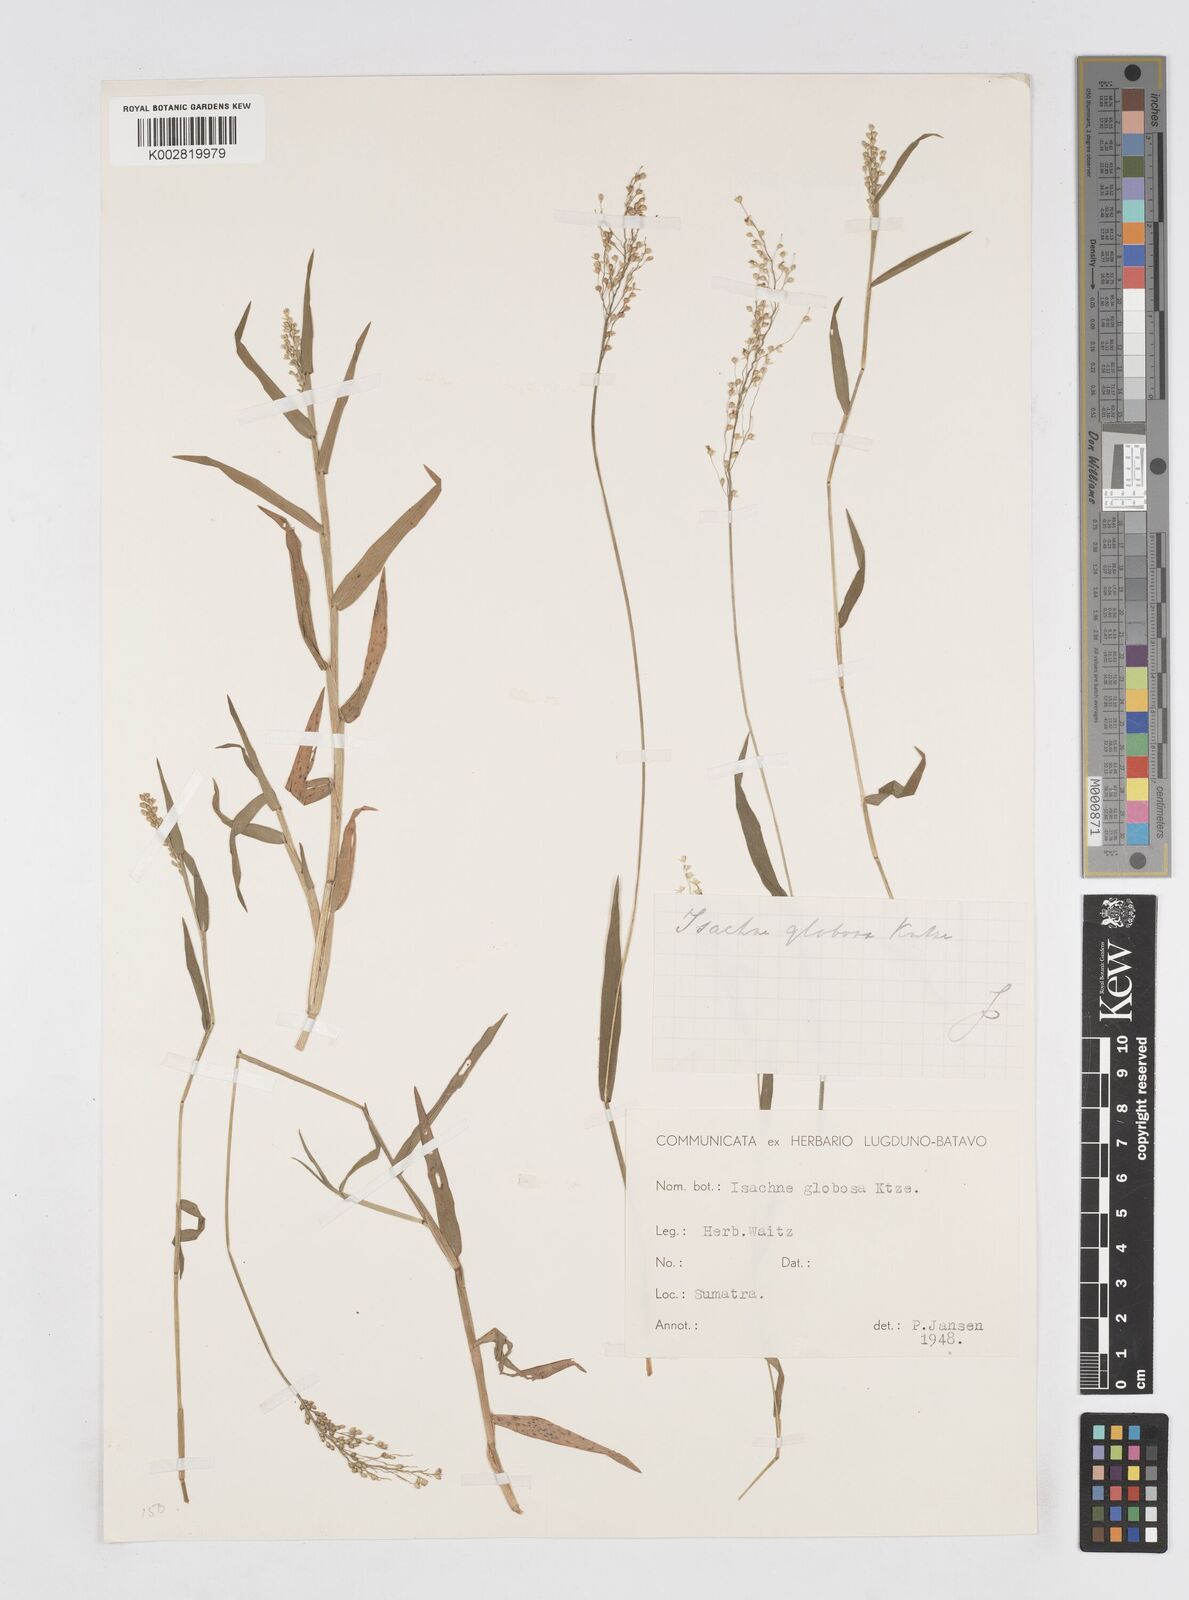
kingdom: Plantae
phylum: Tracheophyta
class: Liliopsida
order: Poales
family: Poaceae
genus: Isachne
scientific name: Isachne globosa
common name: Swamp millet
